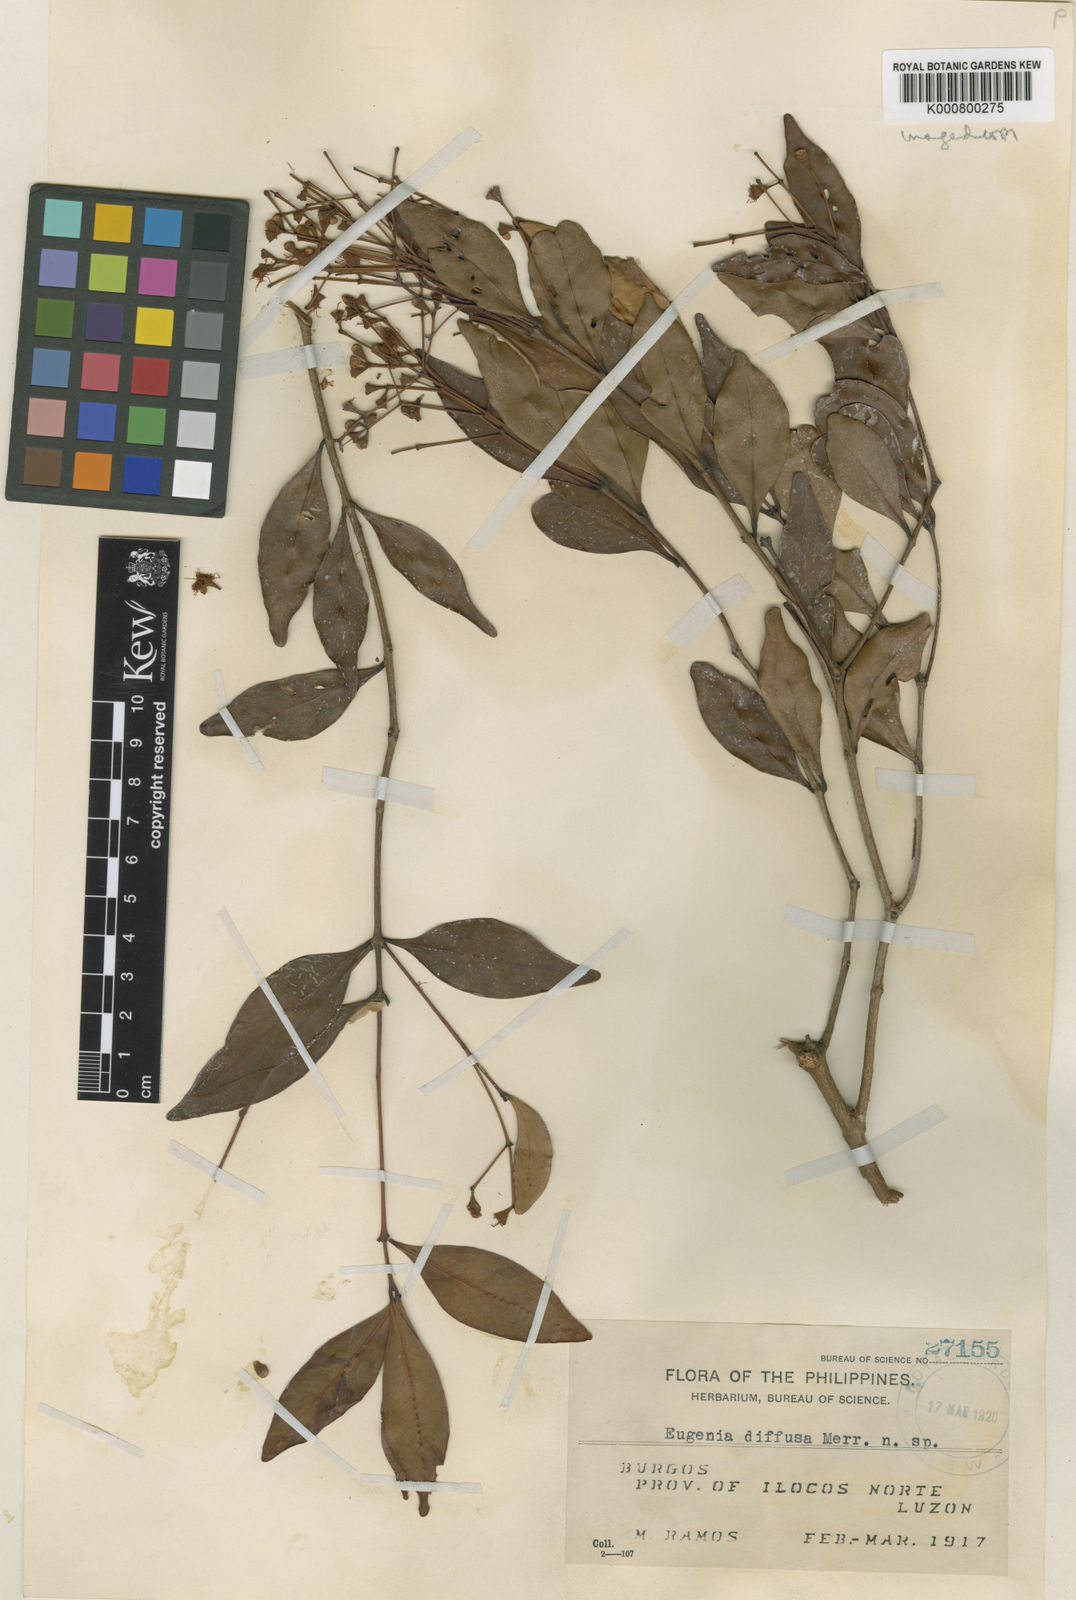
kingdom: Plantae
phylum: Tracheophyta
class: Magnoliopsida
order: Myrtales
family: Myrtaceae
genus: Syzygium
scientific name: Syzygium diffusiflorum
